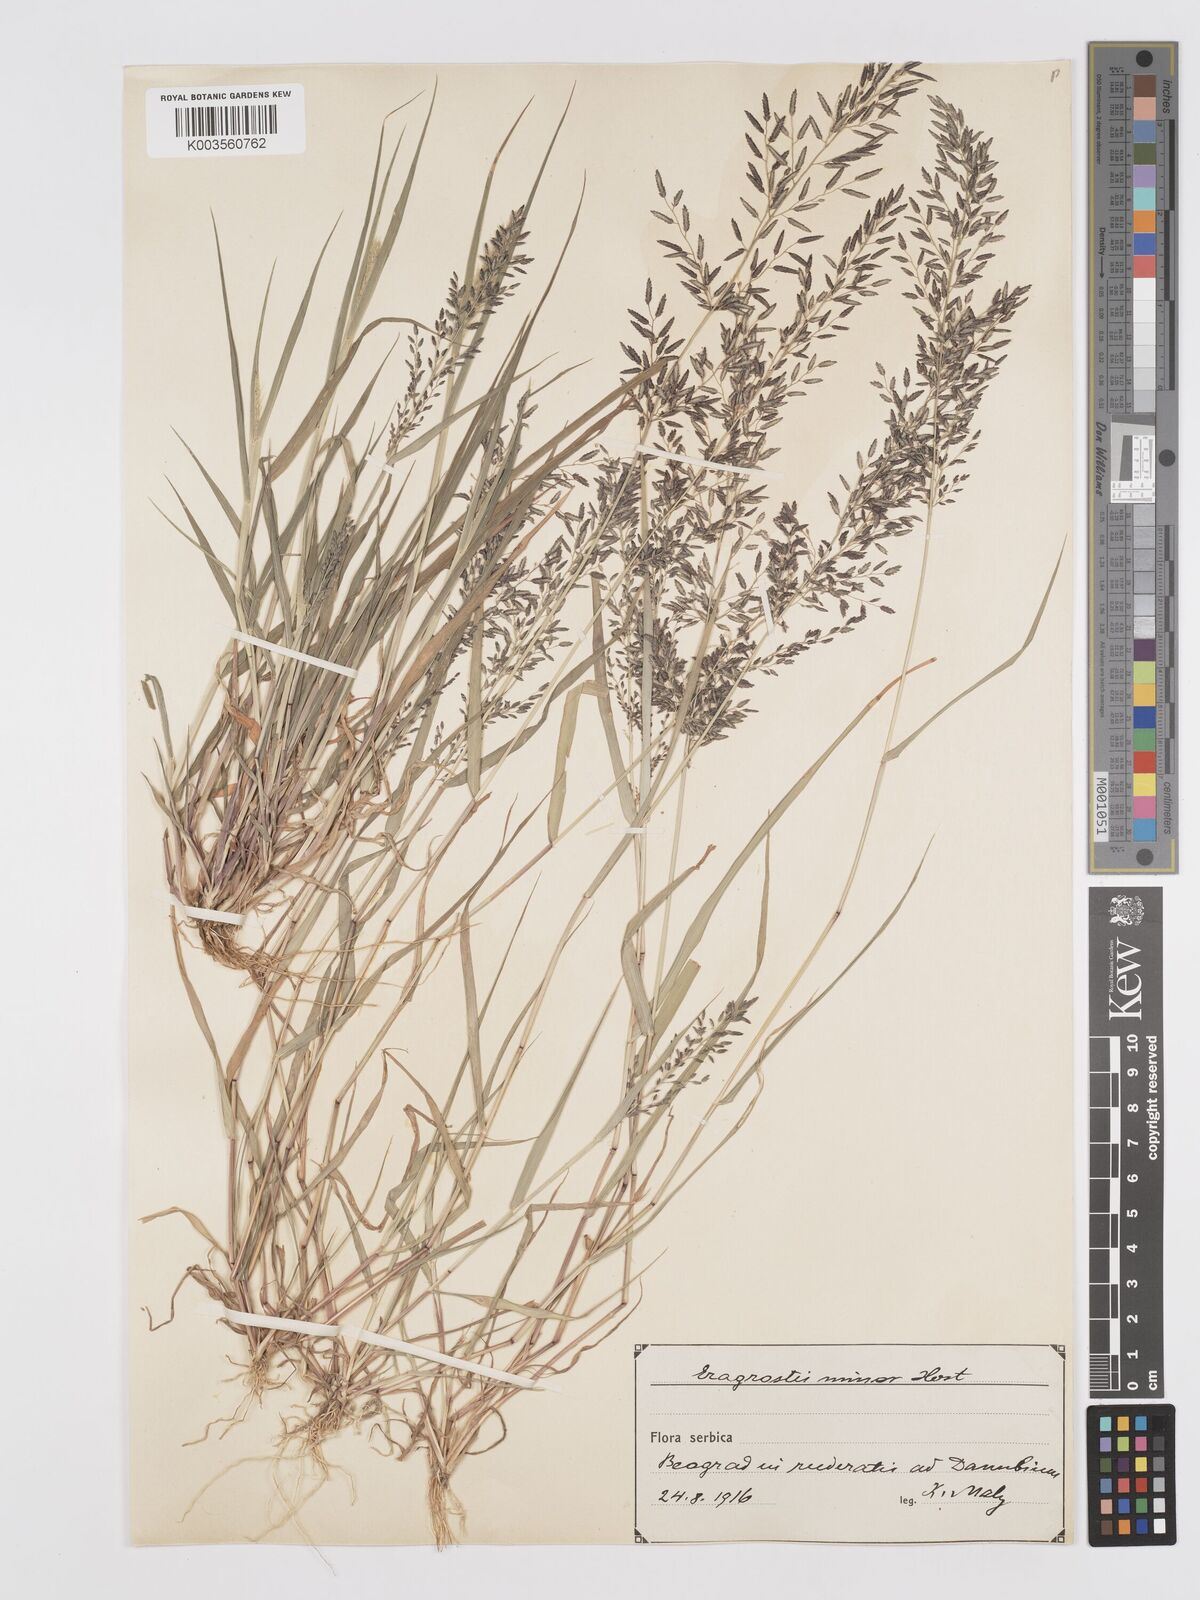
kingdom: Plantae
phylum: Tracheophyta
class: Liliopsida
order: Poales
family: Poaceae
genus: Eragrostis
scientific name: Eragrostis minor
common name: Small love-grass
